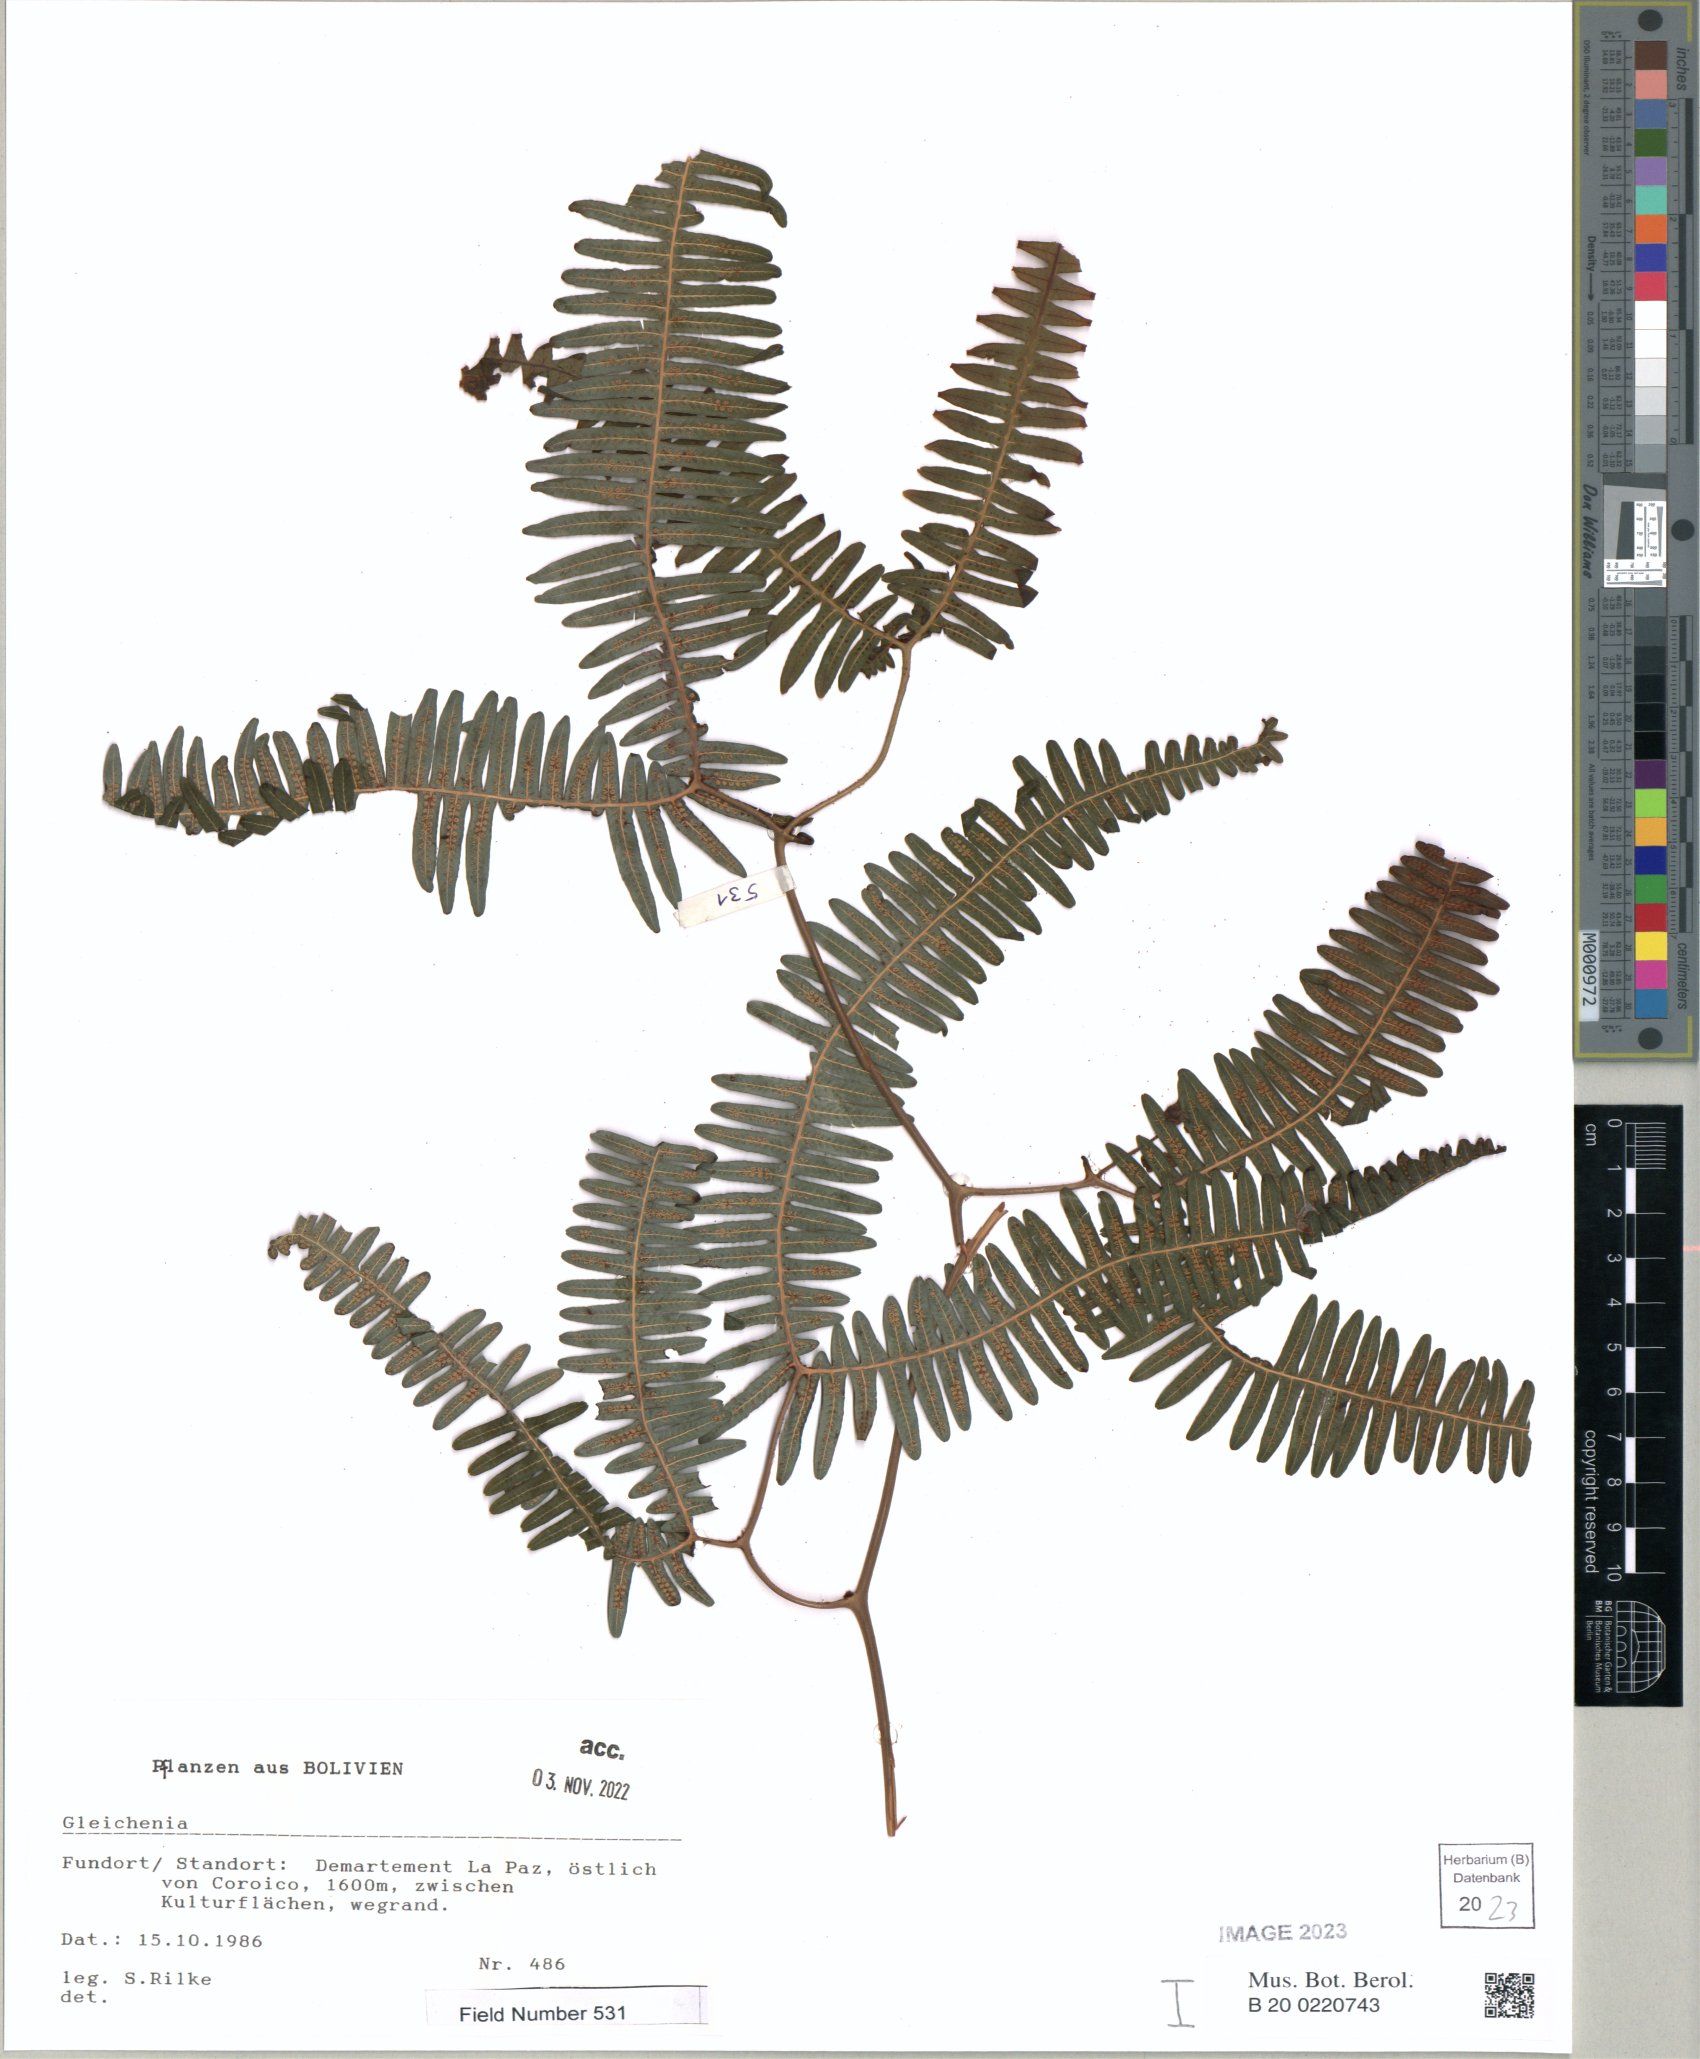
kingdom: Plantae
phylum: Tracheophyta
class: Polypodiopsida
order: Gleicheniales
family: Gleicheniaceae
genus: Gleichenia
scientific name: Gleichenia
